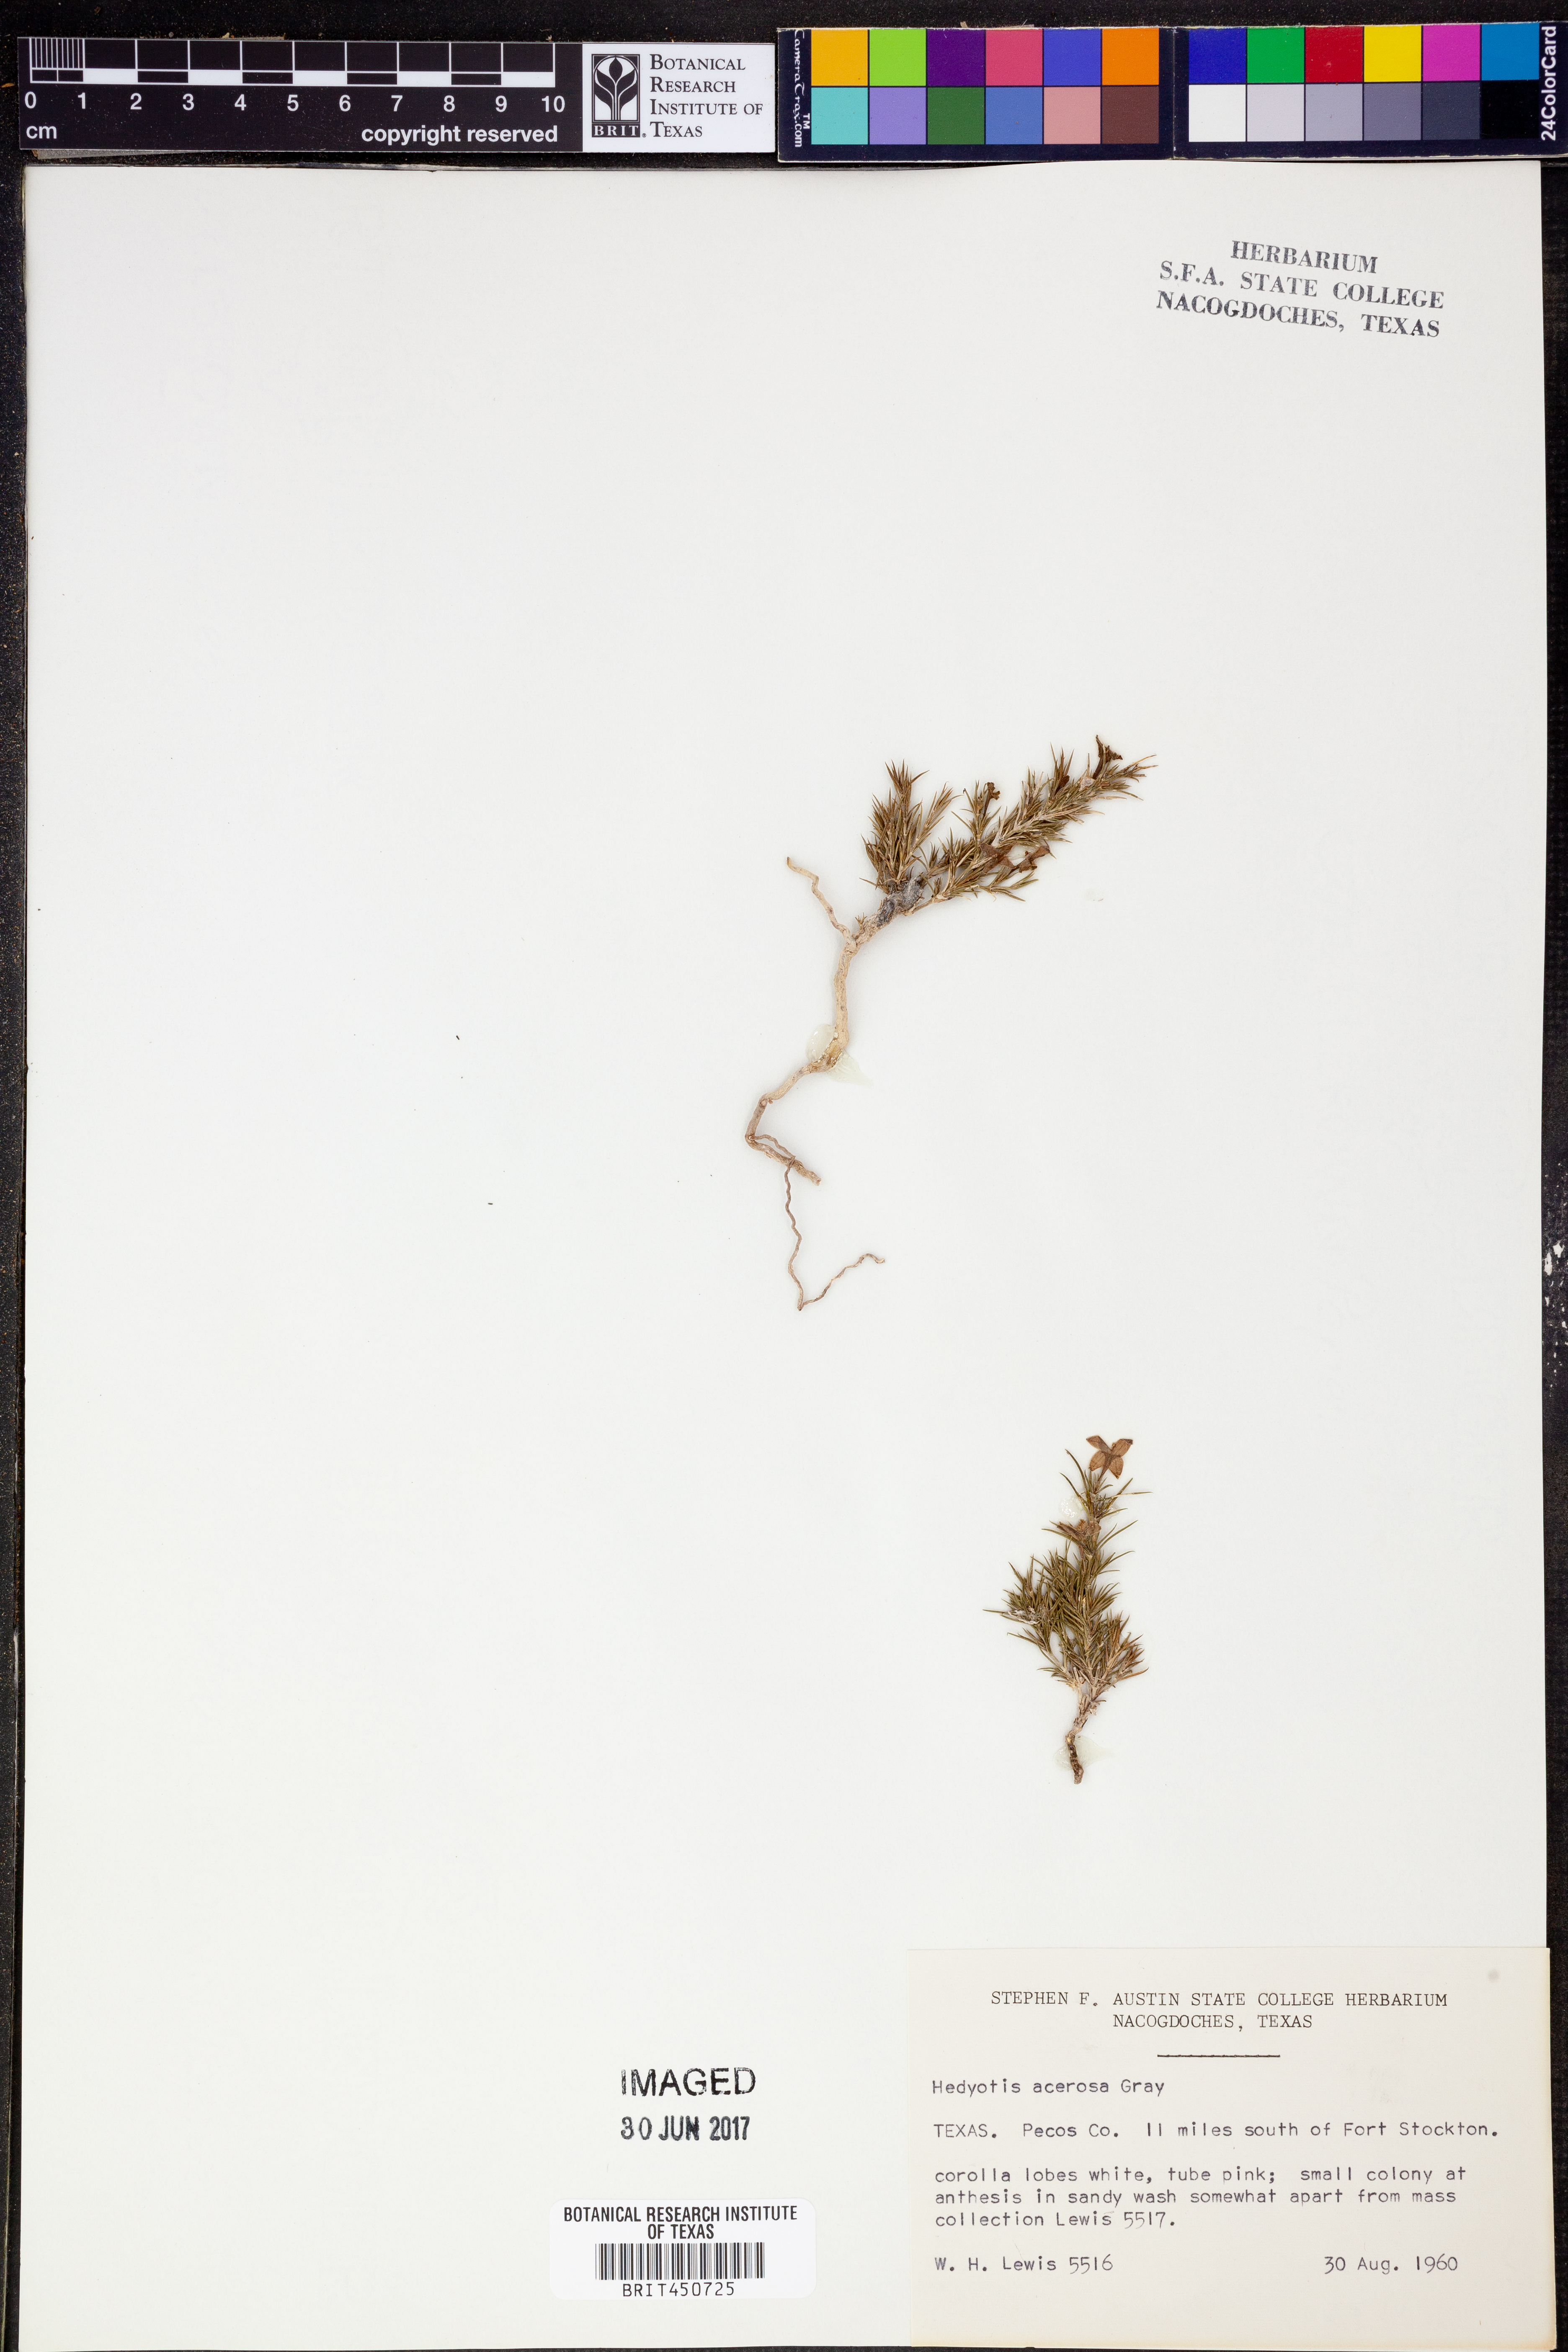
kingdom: Plantae
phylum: Tracheophyta
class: Magnoliopsida
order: Gentianales
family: Rubiaceae
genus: Houstonia
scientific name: Houstonia acerosa
